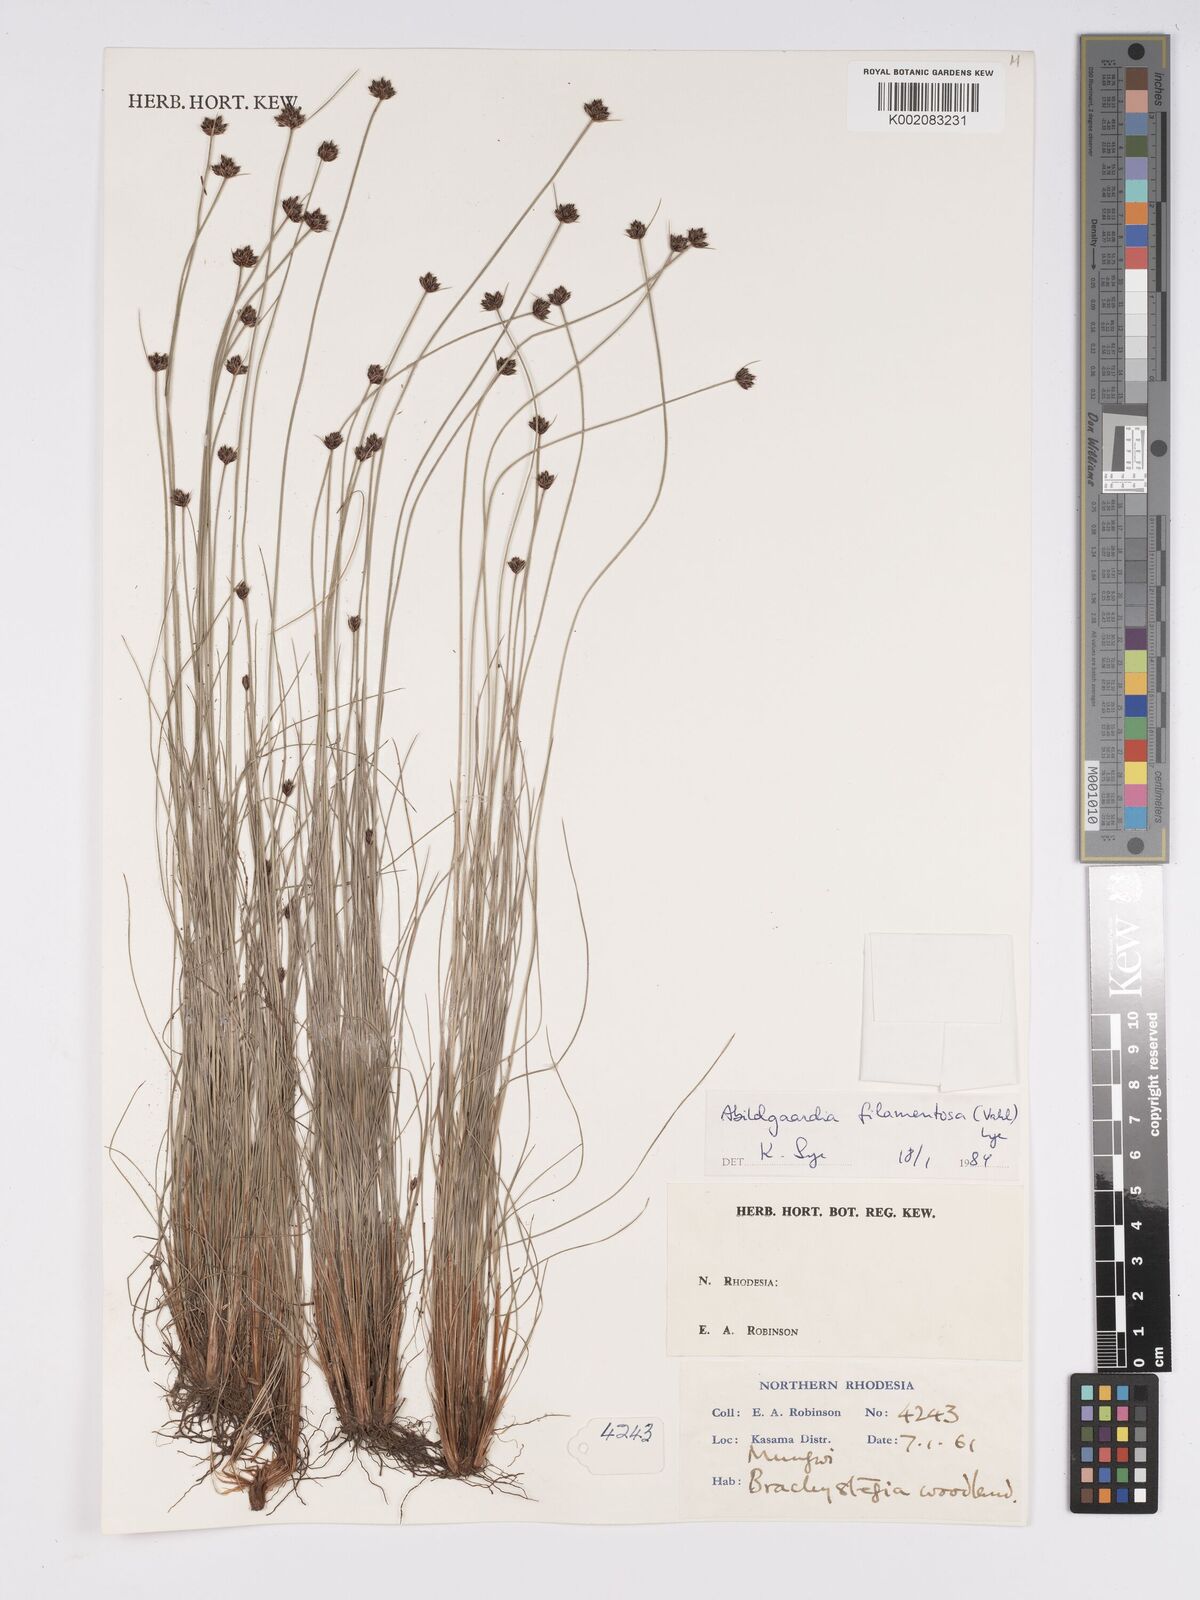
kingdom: Plantae
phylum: Tracheophyta
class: Liliopsida
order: Poales
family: Cyperaceae
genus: Bulbostylis
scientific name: Bulbostylis filamentosa
